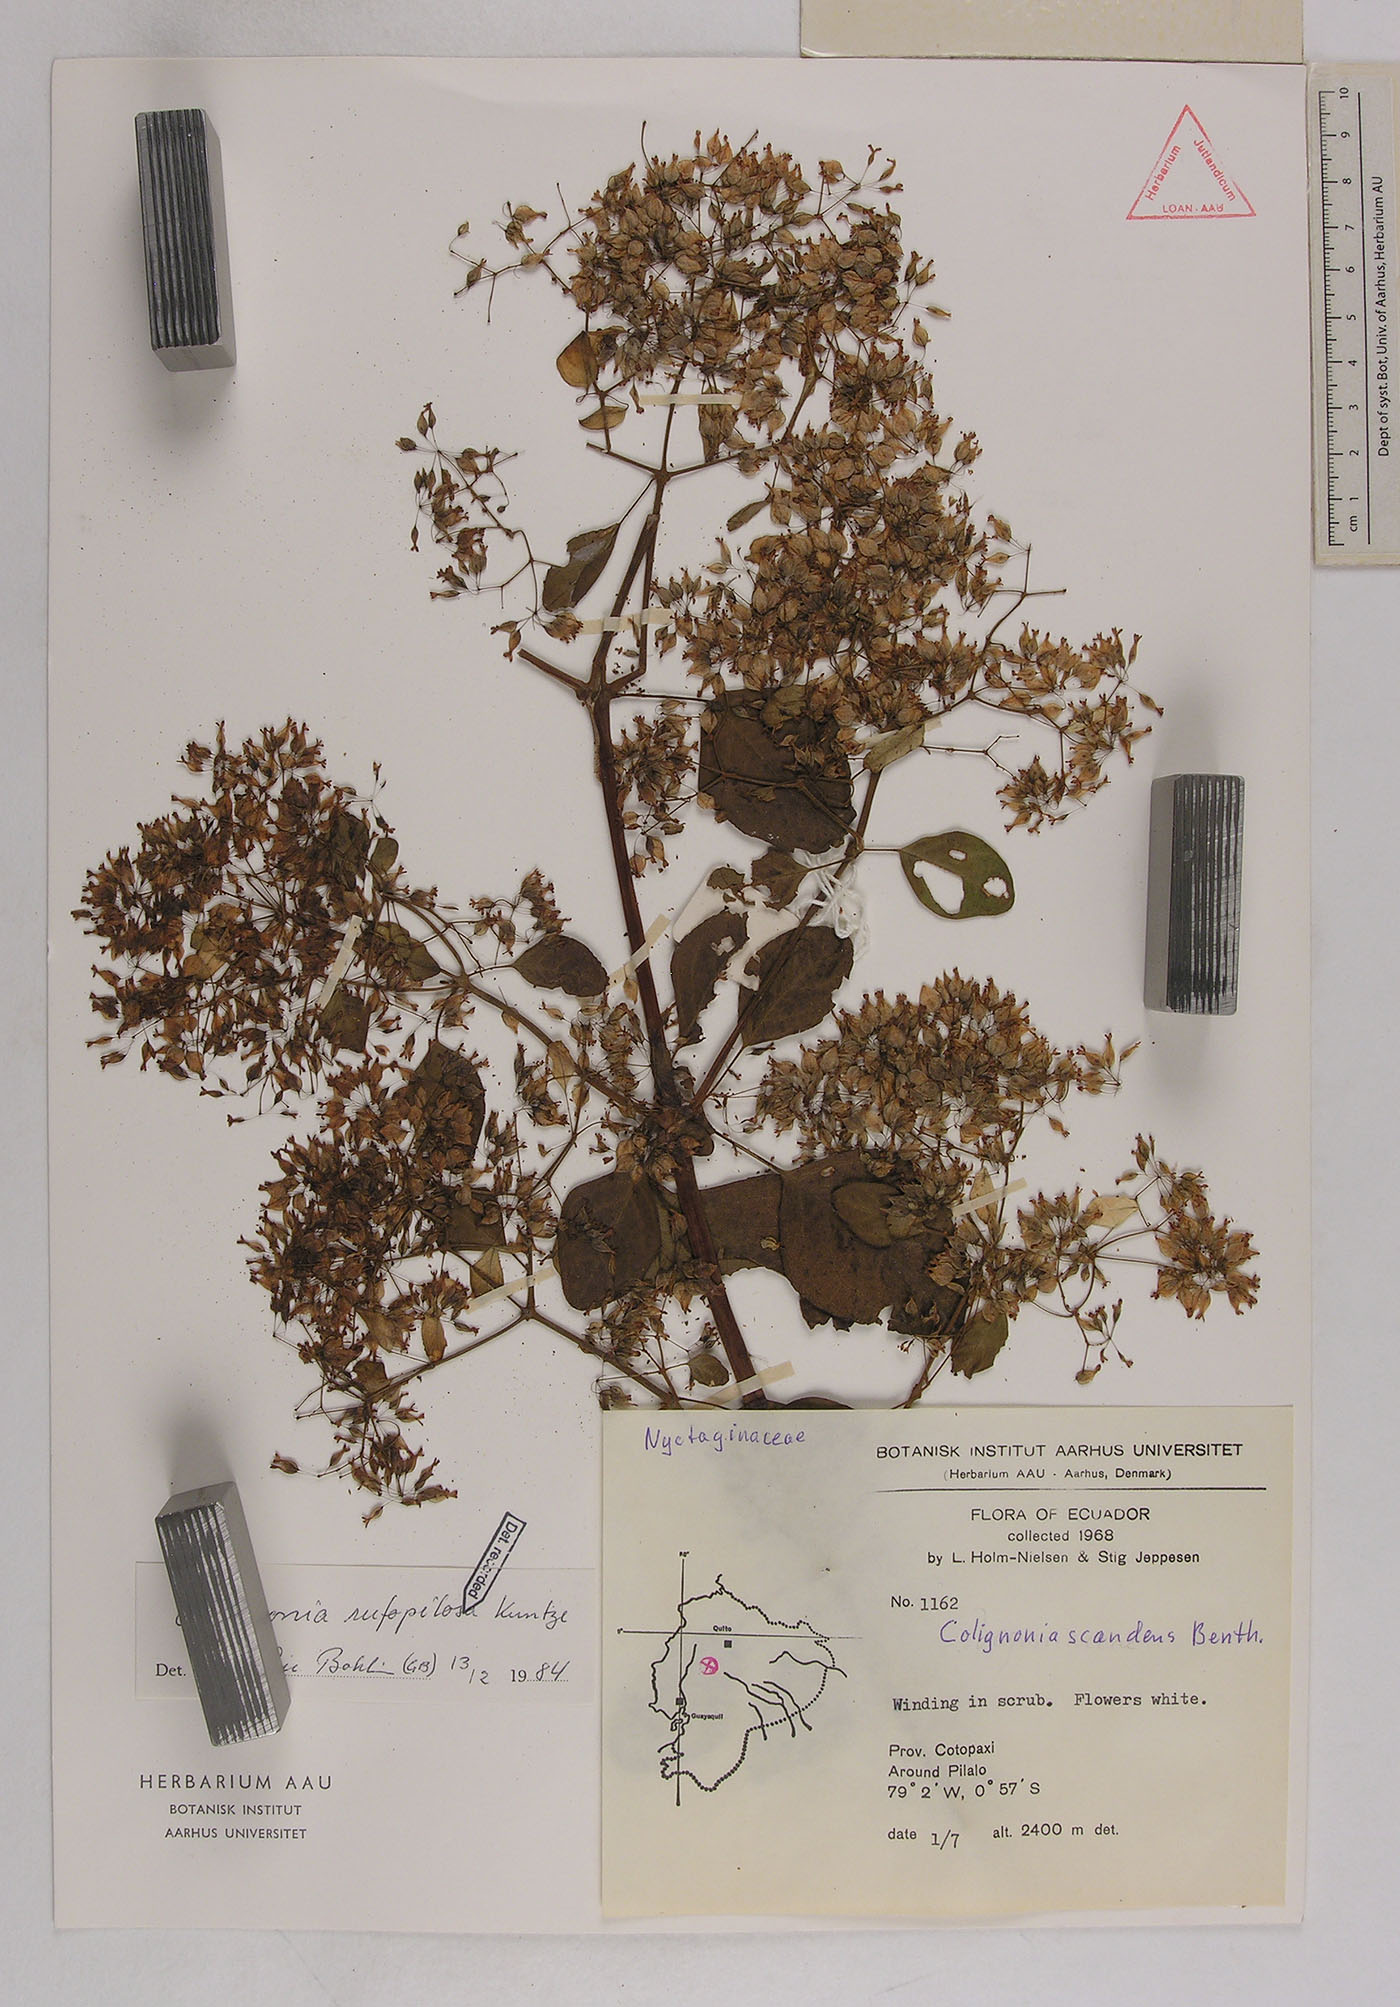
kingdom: Plantae
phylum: Tracheophyta
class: Magnoliopsida
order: Caryophyllales
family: Nyctaginaceae
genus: Colignonia
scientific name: Colignonia rufopilosa
